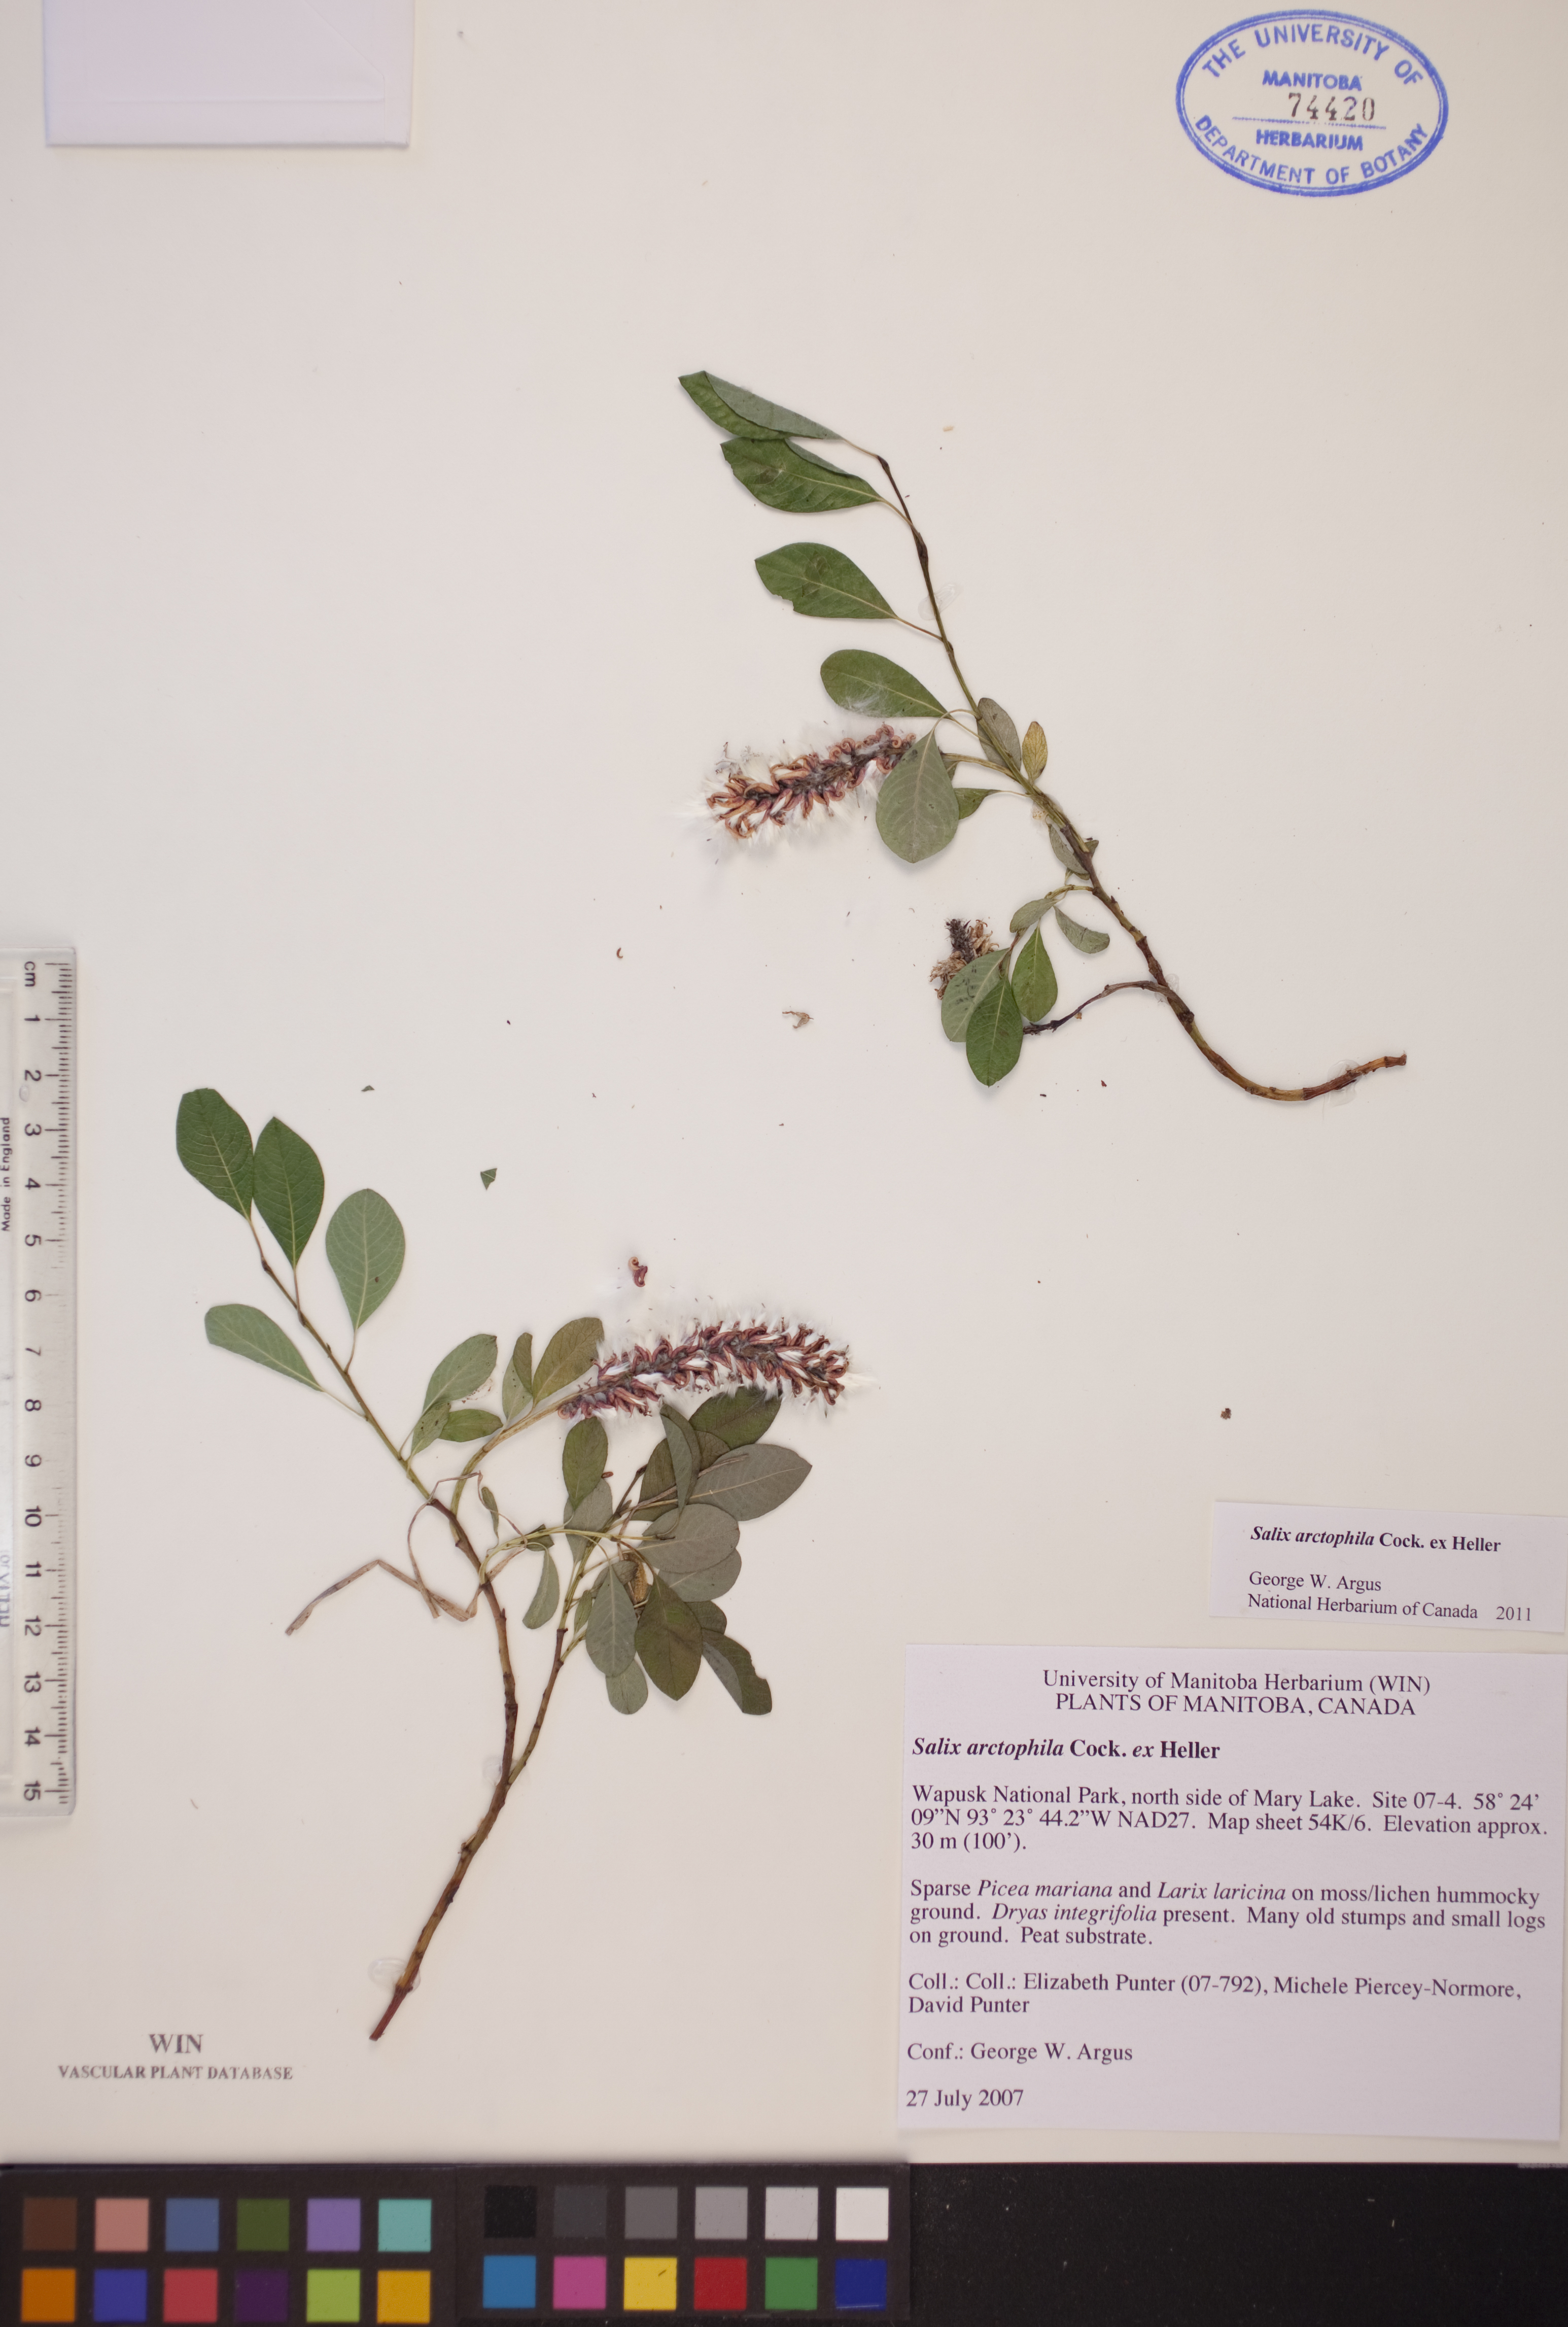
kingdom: Plantae
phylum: Tracheophyta
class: Magnoliopsida
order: Malpighiales
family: Salicaceae
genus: Salix
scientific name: Salix arctophila
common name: Greenland willow
